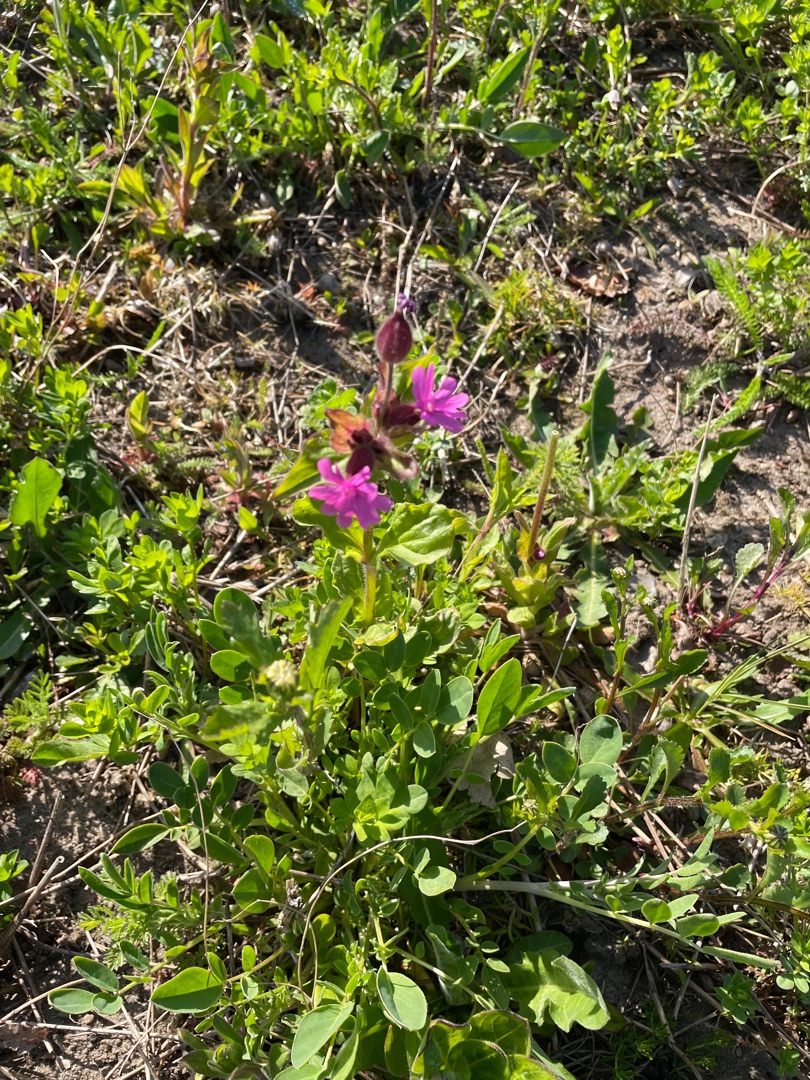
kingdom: Plantae
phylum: Tracheophyta
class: Magnoliopsida
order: Caryophyllales
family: Caryophyllaceae
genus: Silene
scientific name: Silene dioica
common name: Dagpragtstjerne
